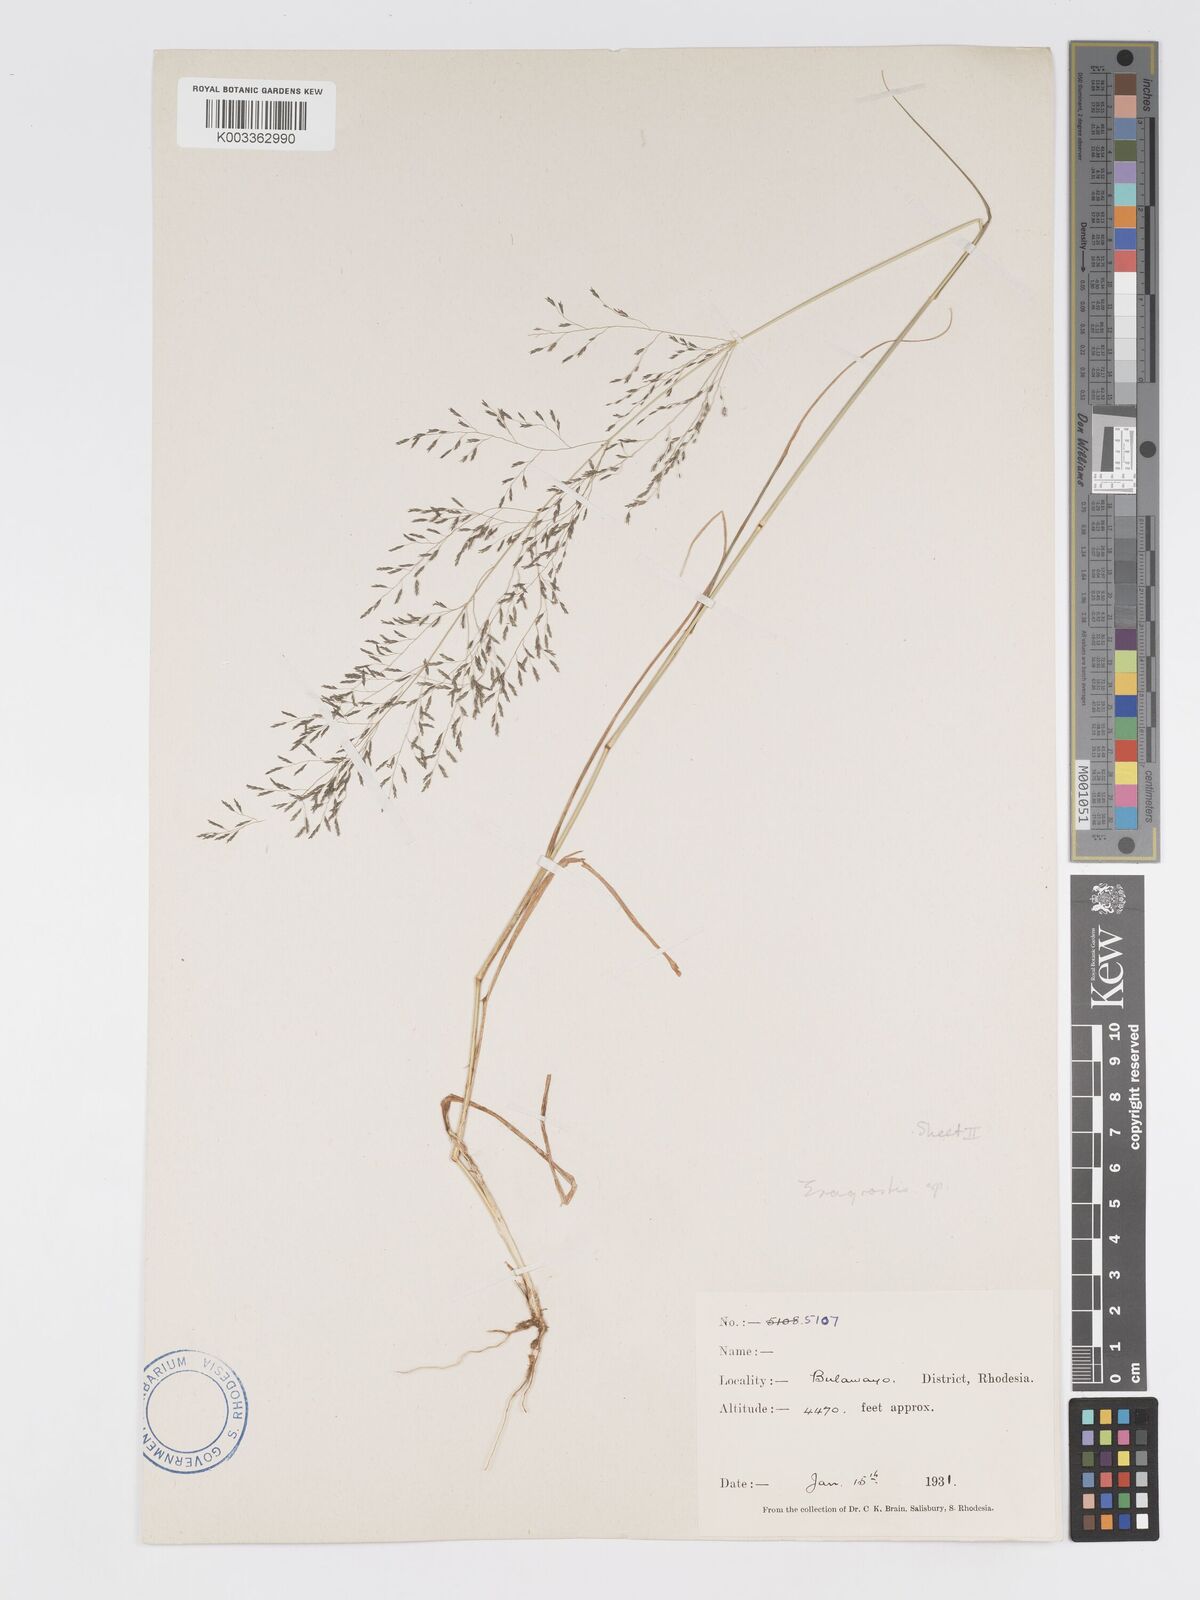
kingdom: Plantae
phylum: Tracheophyta
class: Liliopsida
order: Poales
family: Poaceae
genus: Eragrostis
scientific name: Eragrostis cylindriflora
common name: Cylinderflower lovegrass
